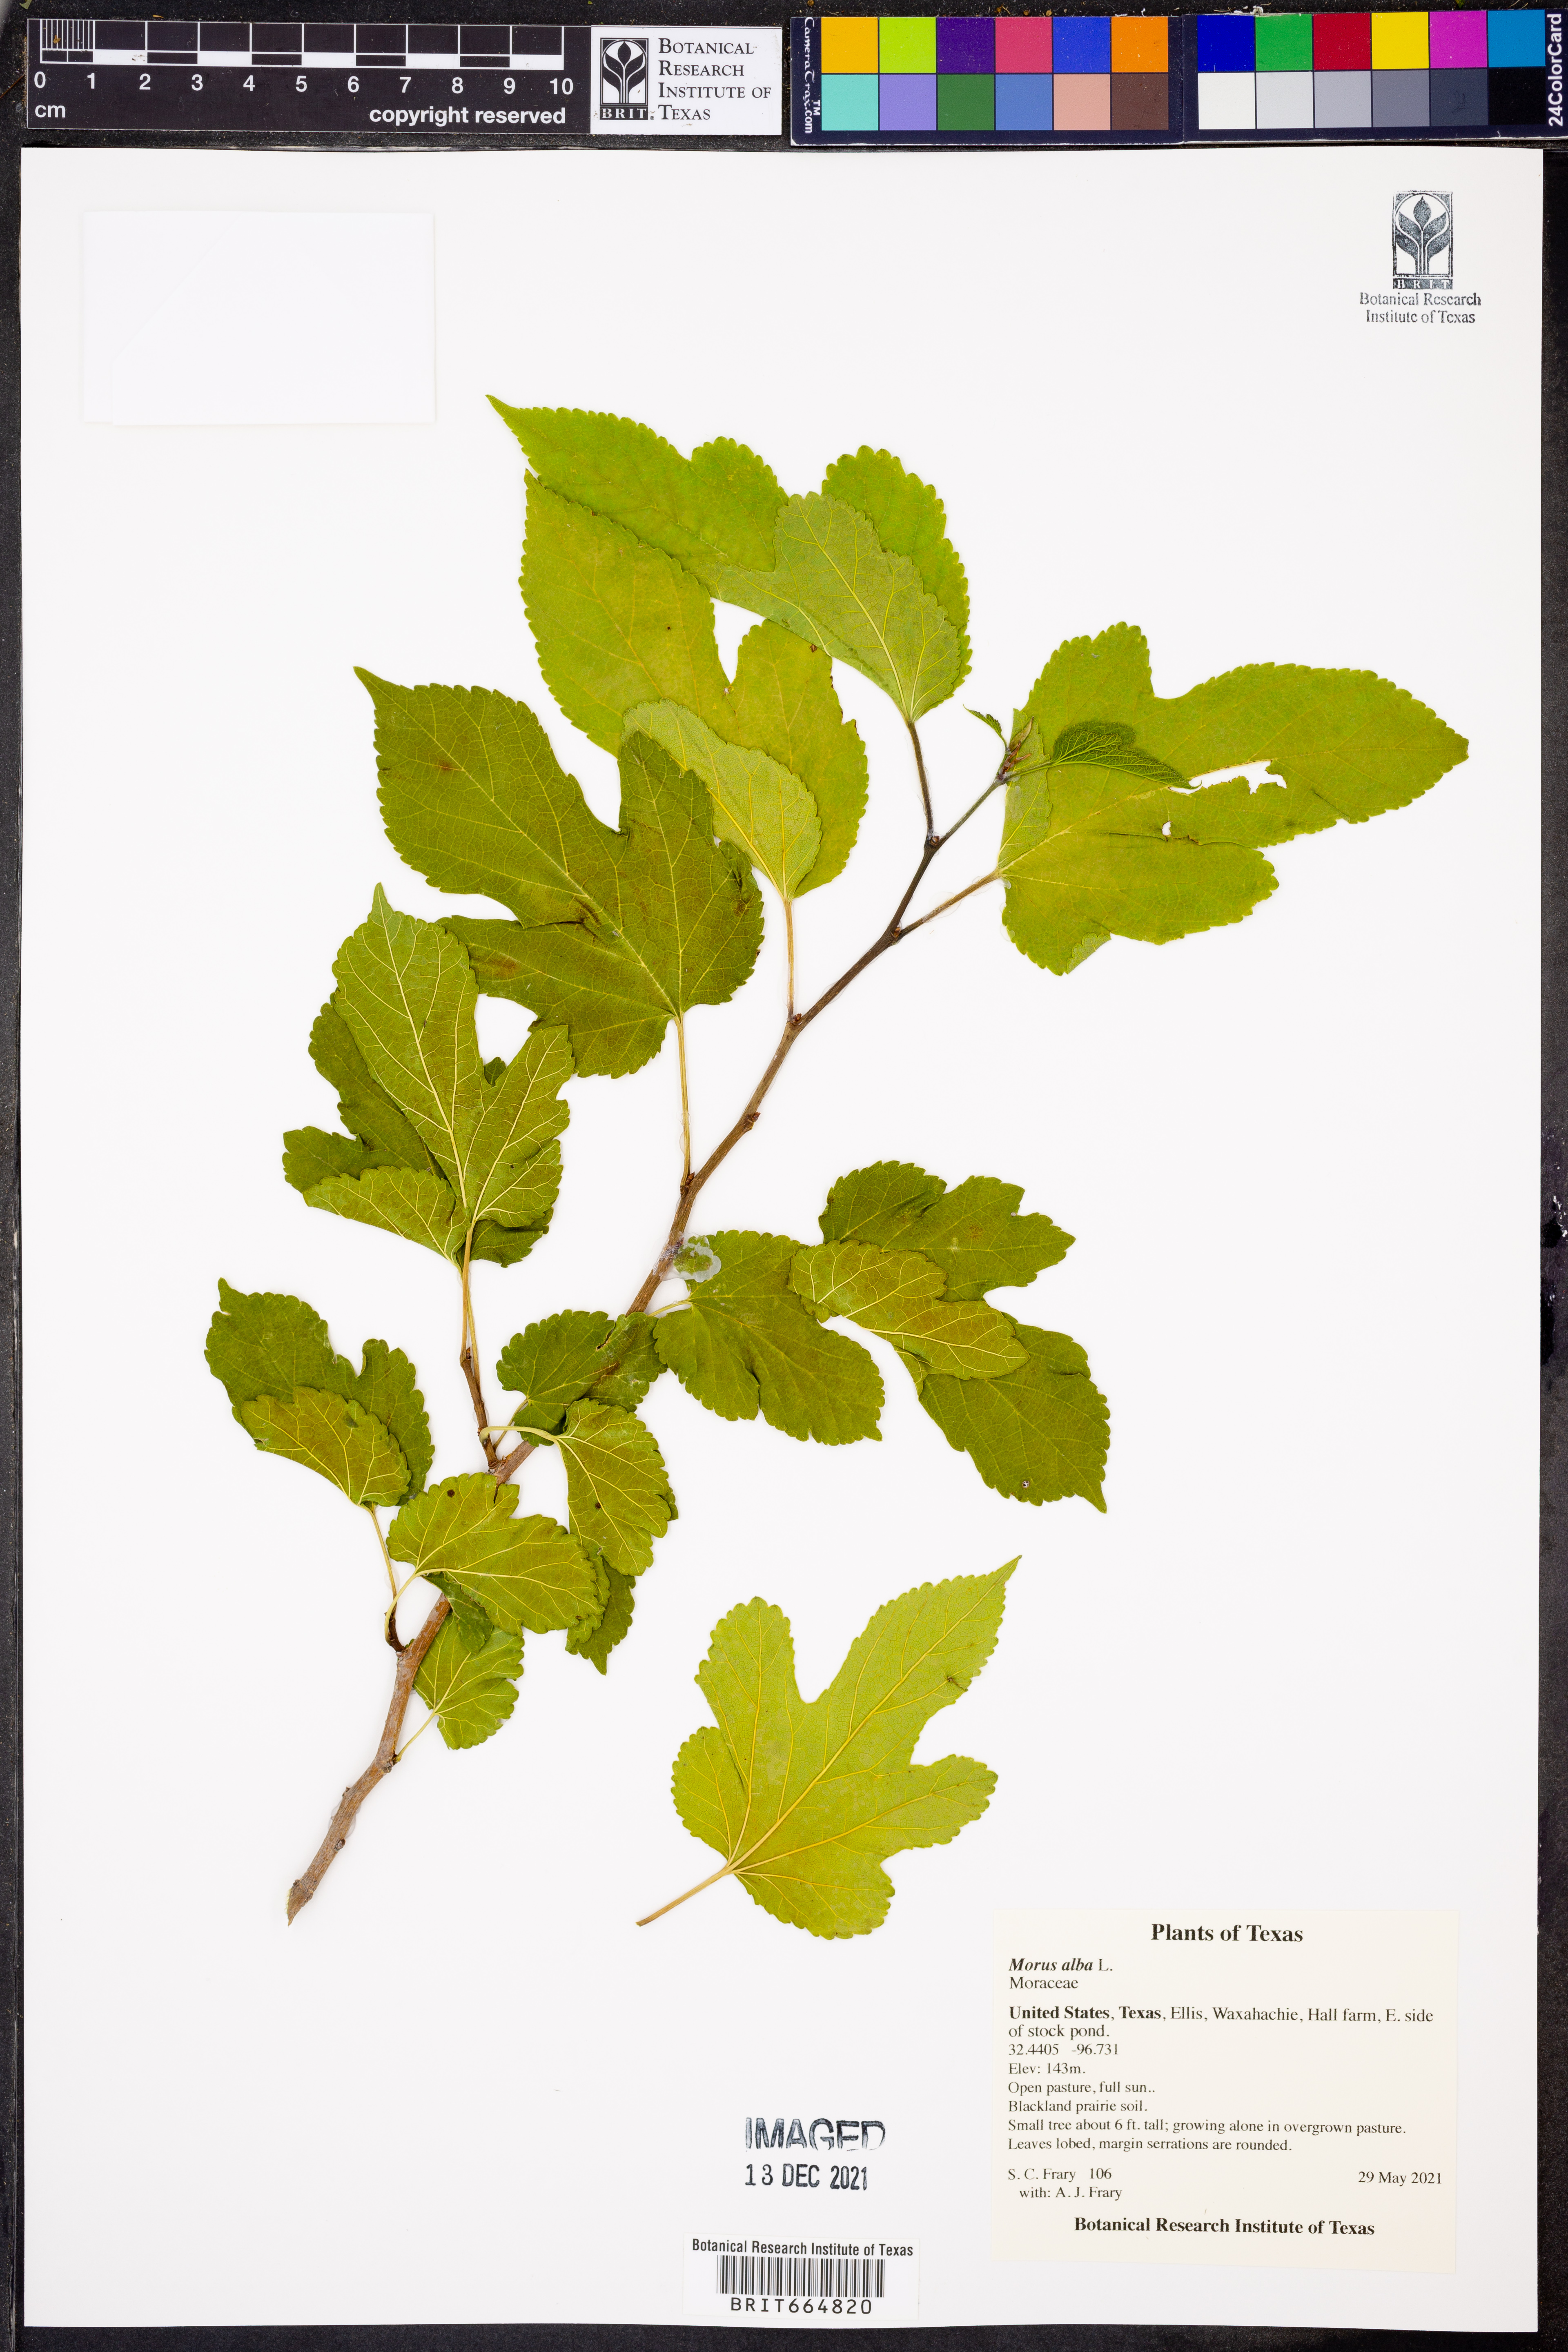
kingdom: Plantae
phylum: Tracheophyta
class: Magnoliopsida
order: Rosales
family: Moraceae
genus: Morus
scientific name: Morus alba
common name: White mulberry
